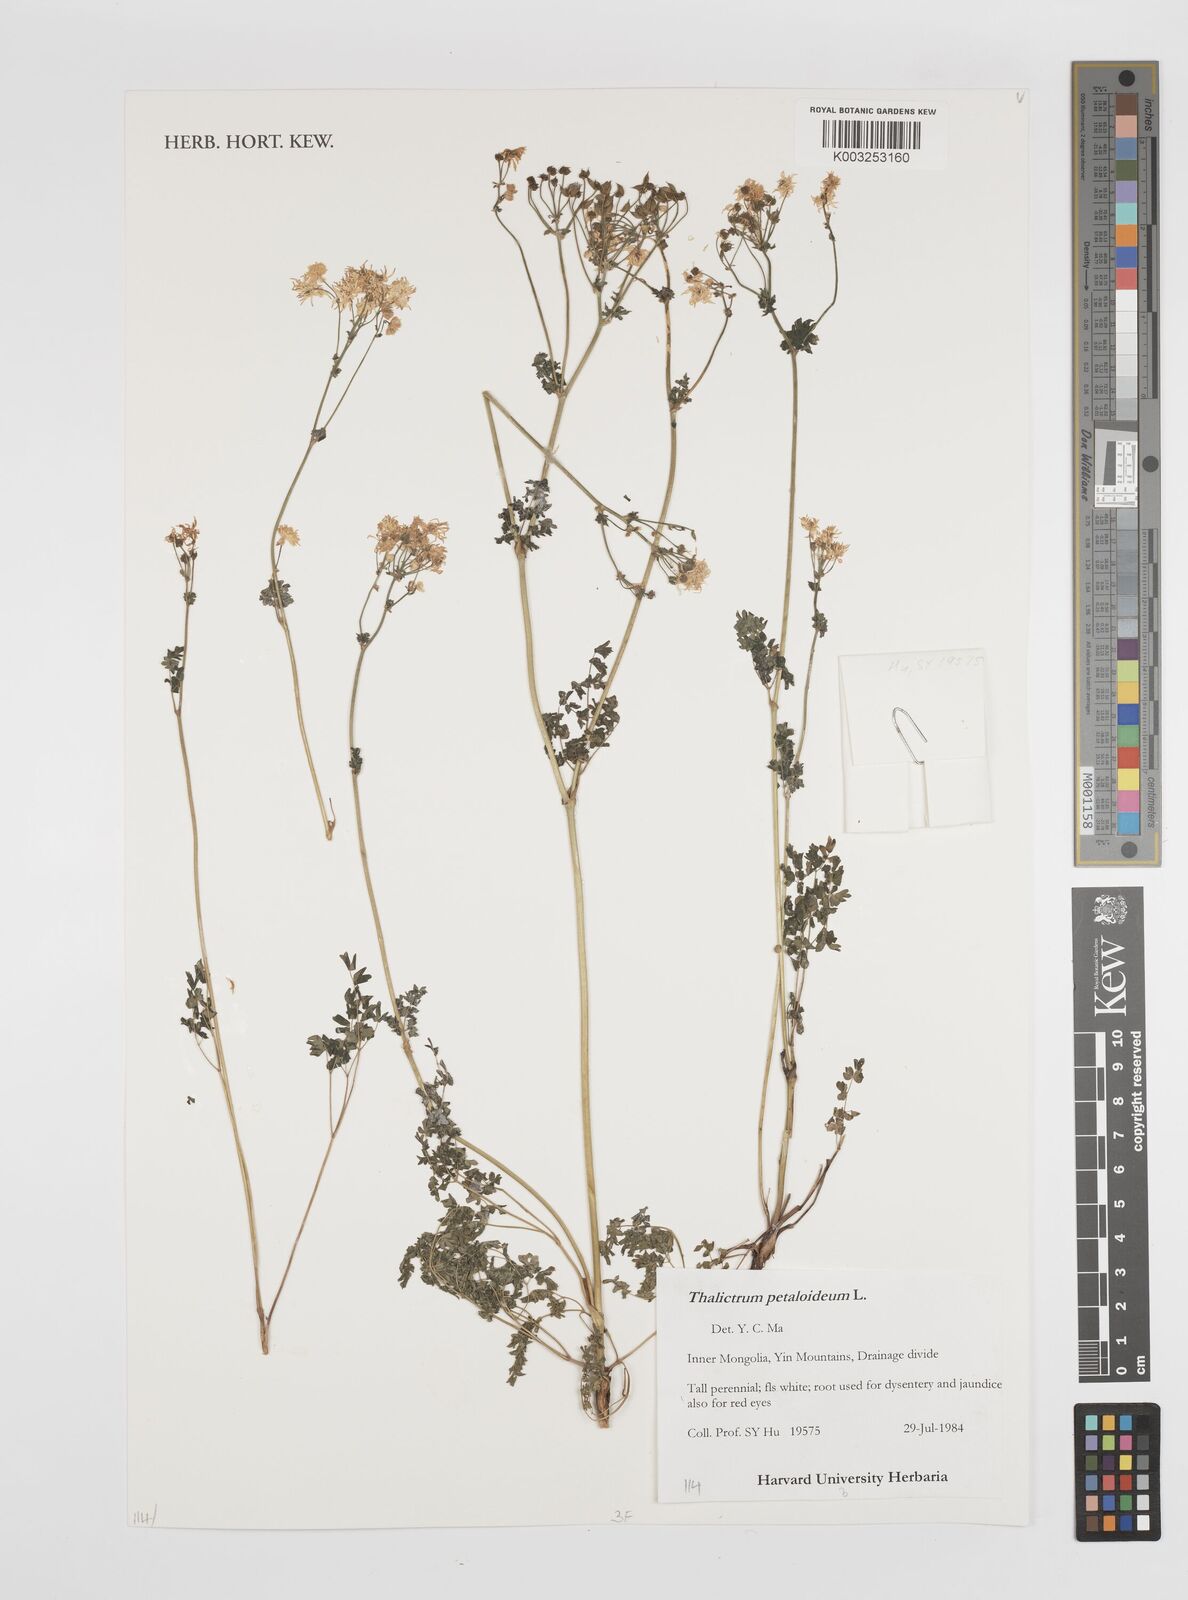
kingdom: Plantae
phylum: Tracheophyta
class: Magnoliopsida
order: Ranunculales
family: Ranunculaceae
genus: Thalictrum
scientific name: Thalictrum petaloideum
